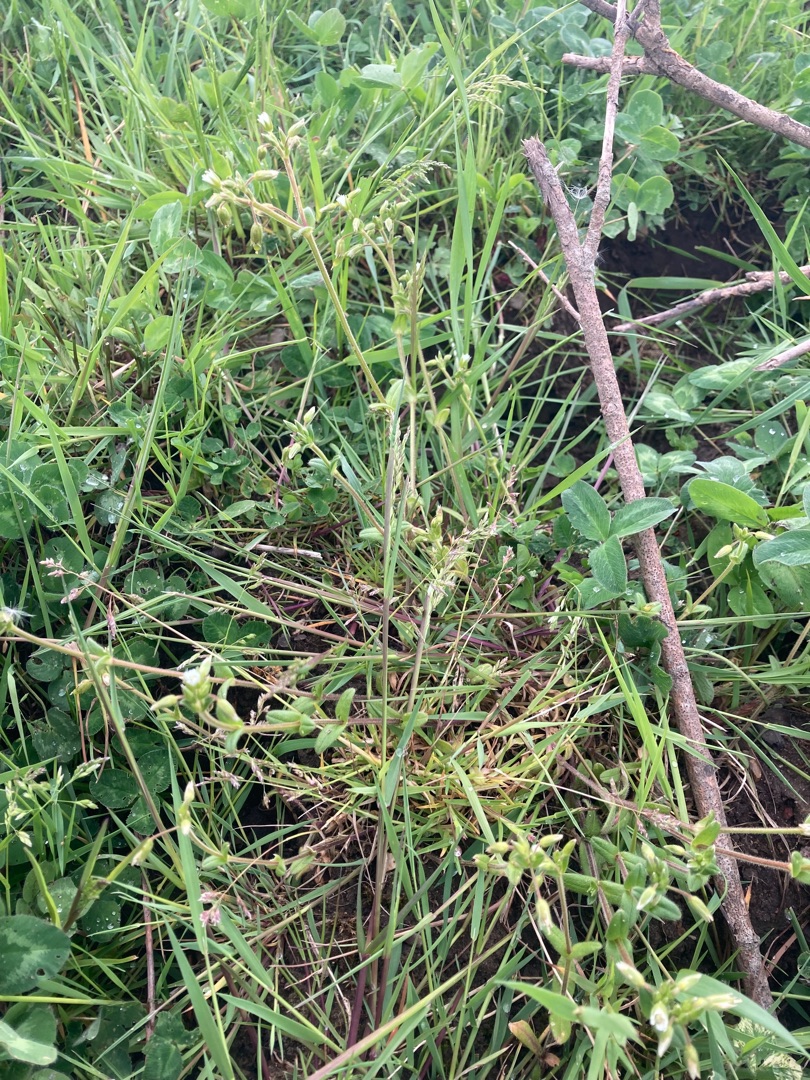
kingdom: Plantae
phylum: Tracheophyta
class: Magnoliopsida
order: Caryophyllales
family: Caryophyllaceae
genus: Cerastium
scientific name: Cerastium fontanum
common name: Almindelig hønsetarm
